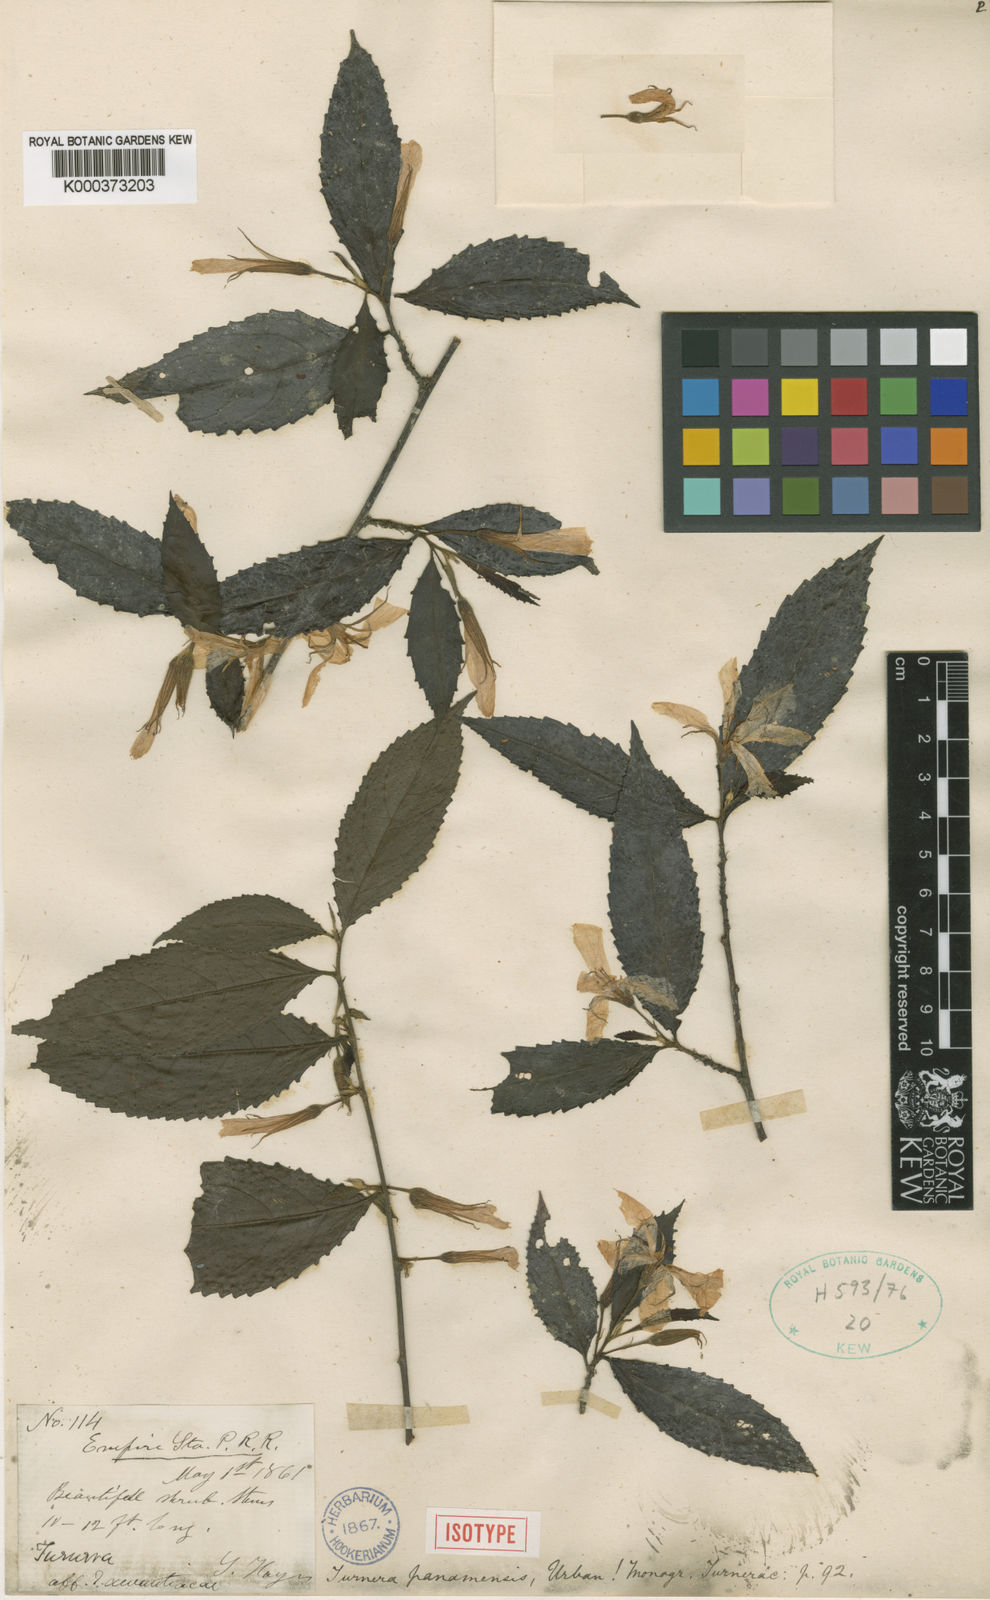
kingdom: Plantae
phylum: Tracheophyta
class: Magnoliopsida
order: Malpighiales
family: Turneraceae
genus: Turnera
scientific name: Turnera panamensis
